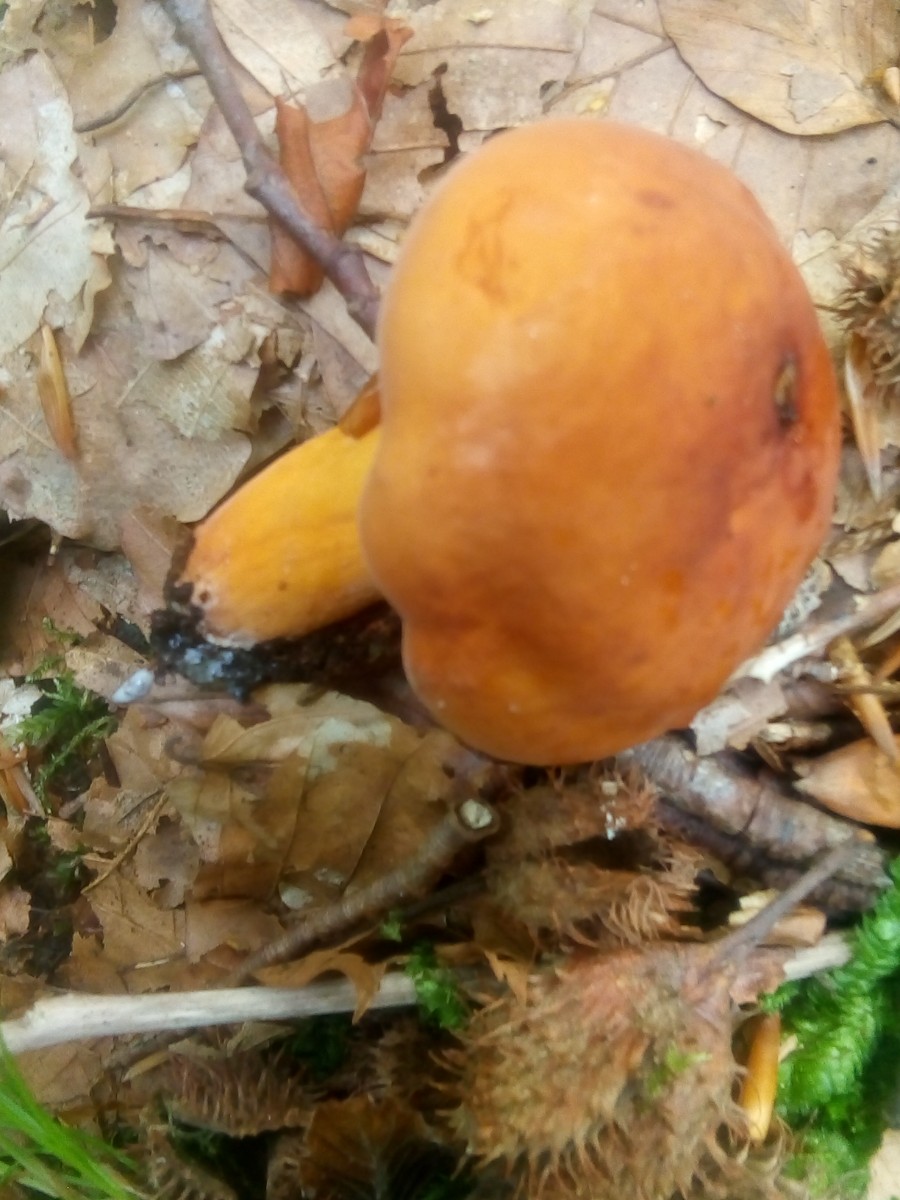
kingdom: Fungi
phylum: Basidiomycota
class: Agaricomycetes
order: Russulales
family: Russulaceae
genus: Lactifluus
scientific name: Lactifluus volemus
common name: spiselig mælkehat
